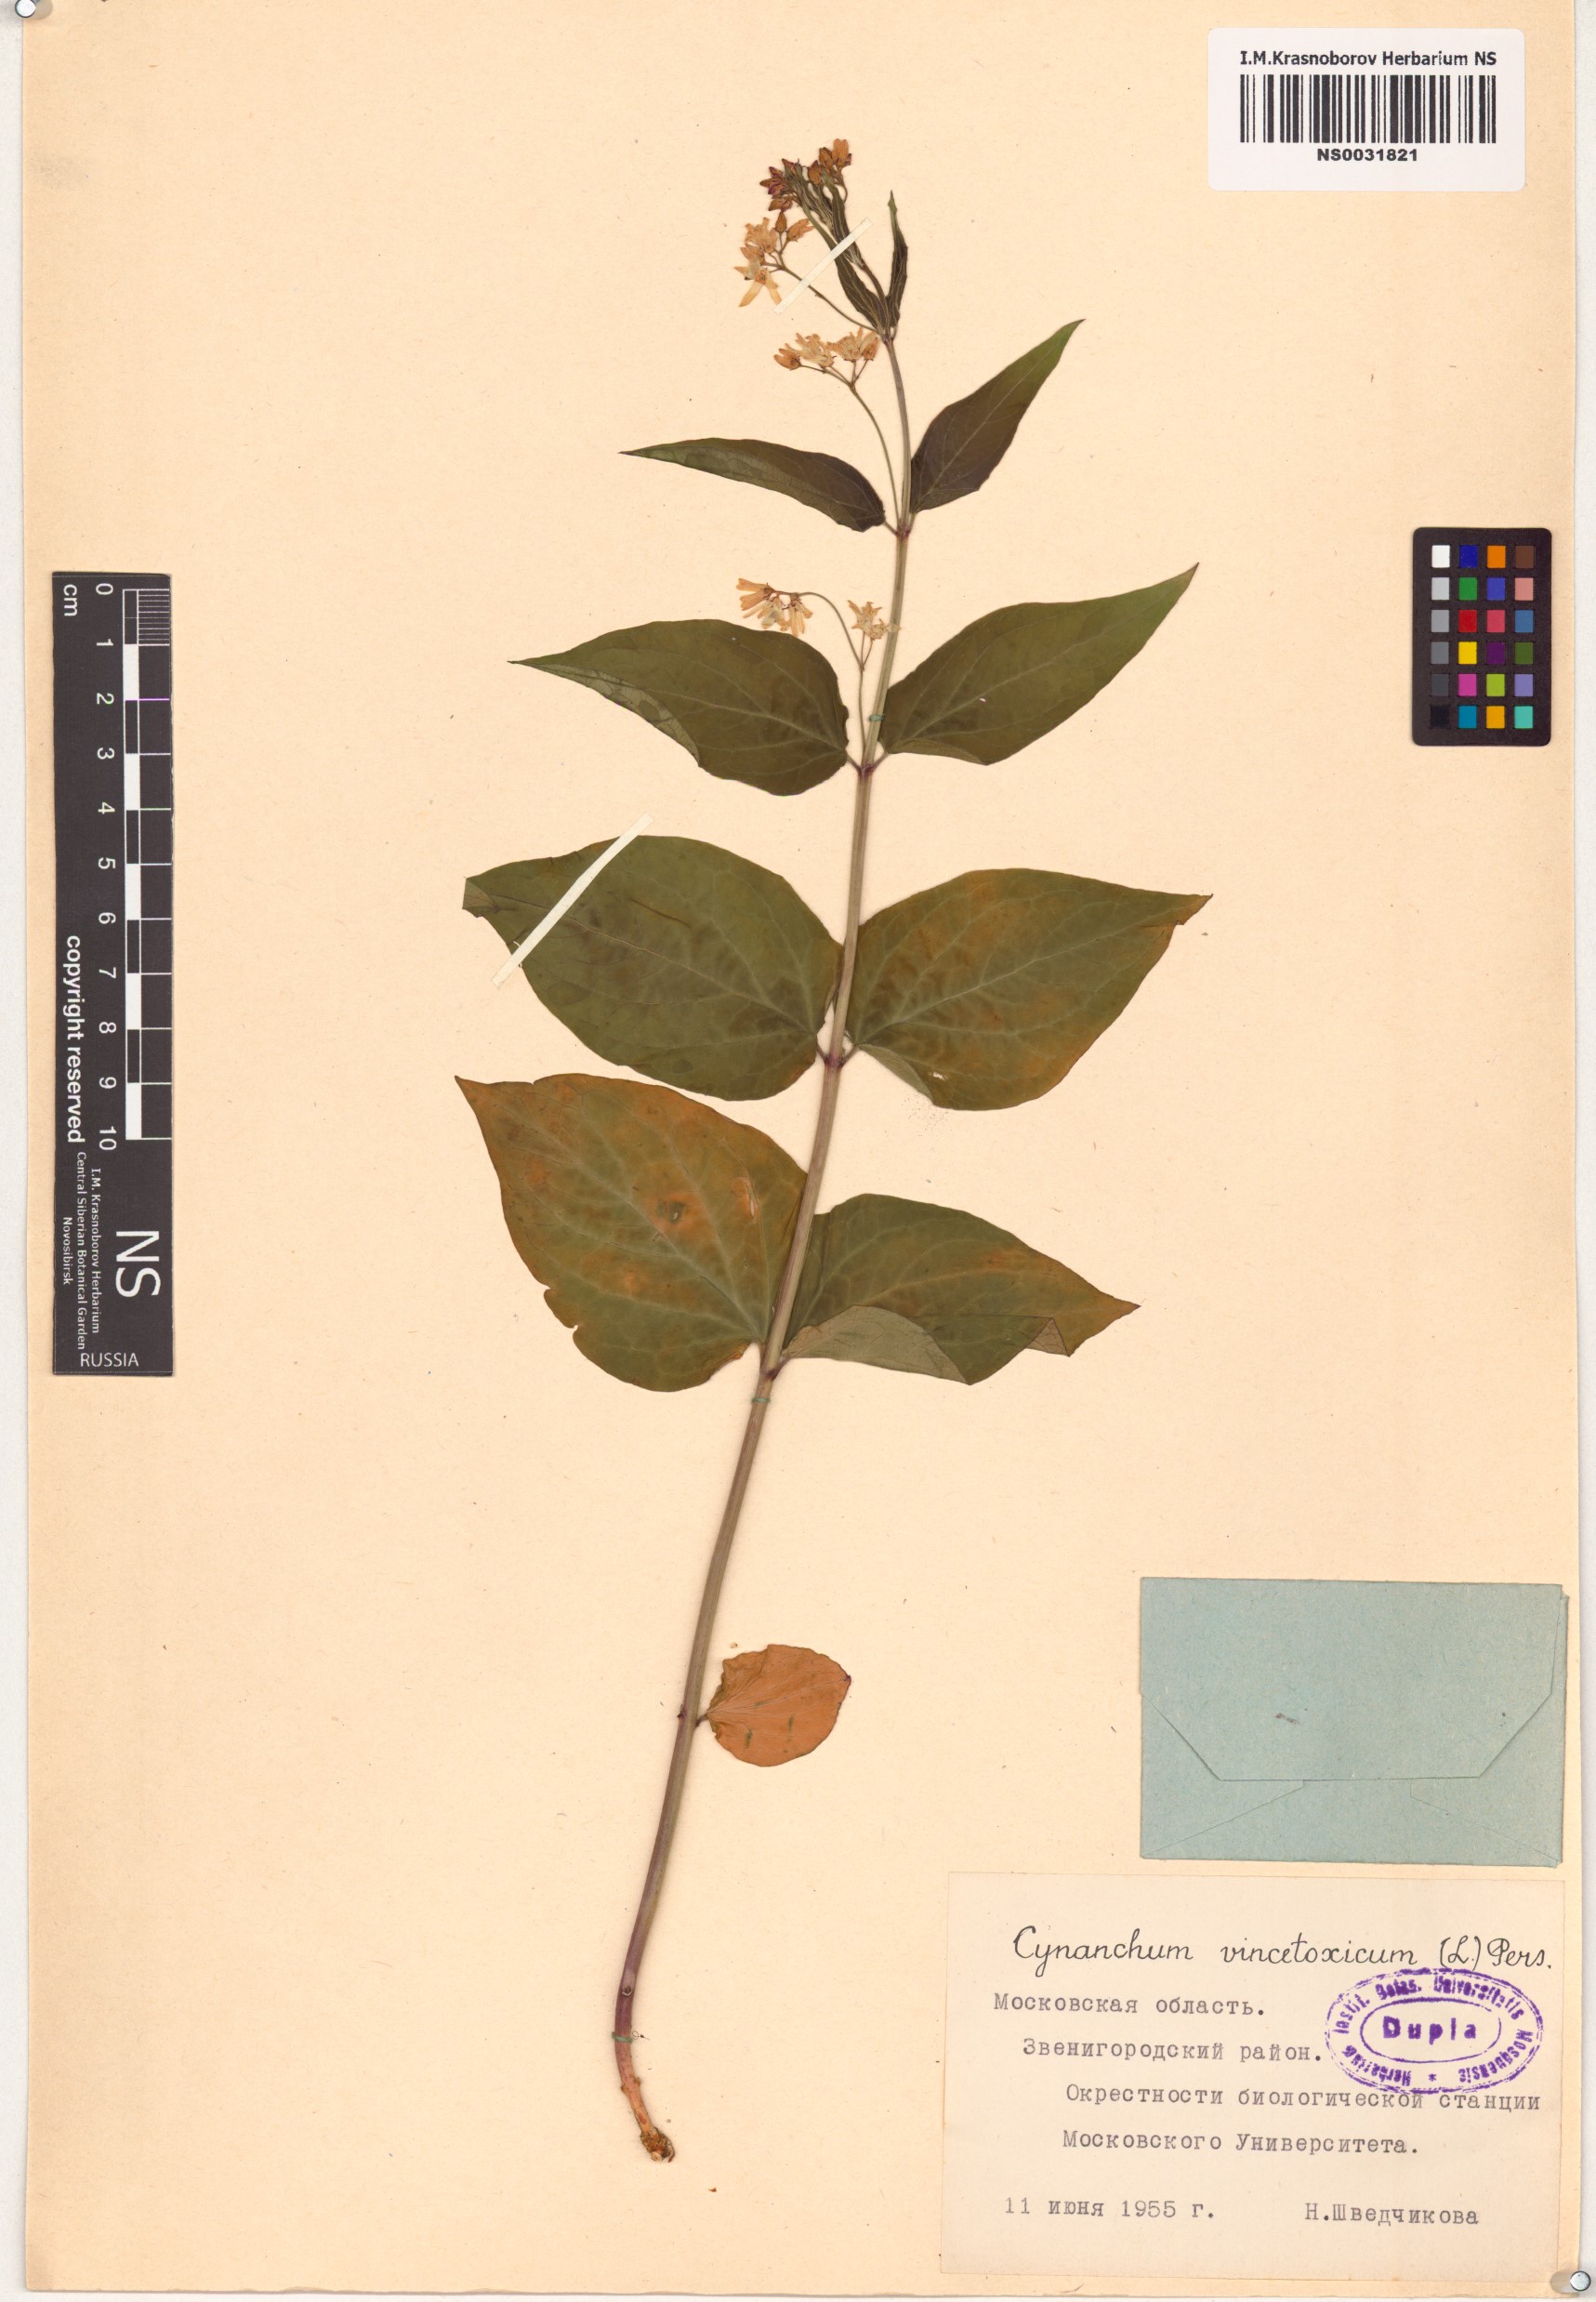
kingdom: Plantae
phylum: Tracheophyta
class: Magnoliopsida
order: Gentianales
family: Apocynaceae
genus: Vincetoxicum
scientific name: Vincetoxicum hirundinaria
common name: White swallowwort
